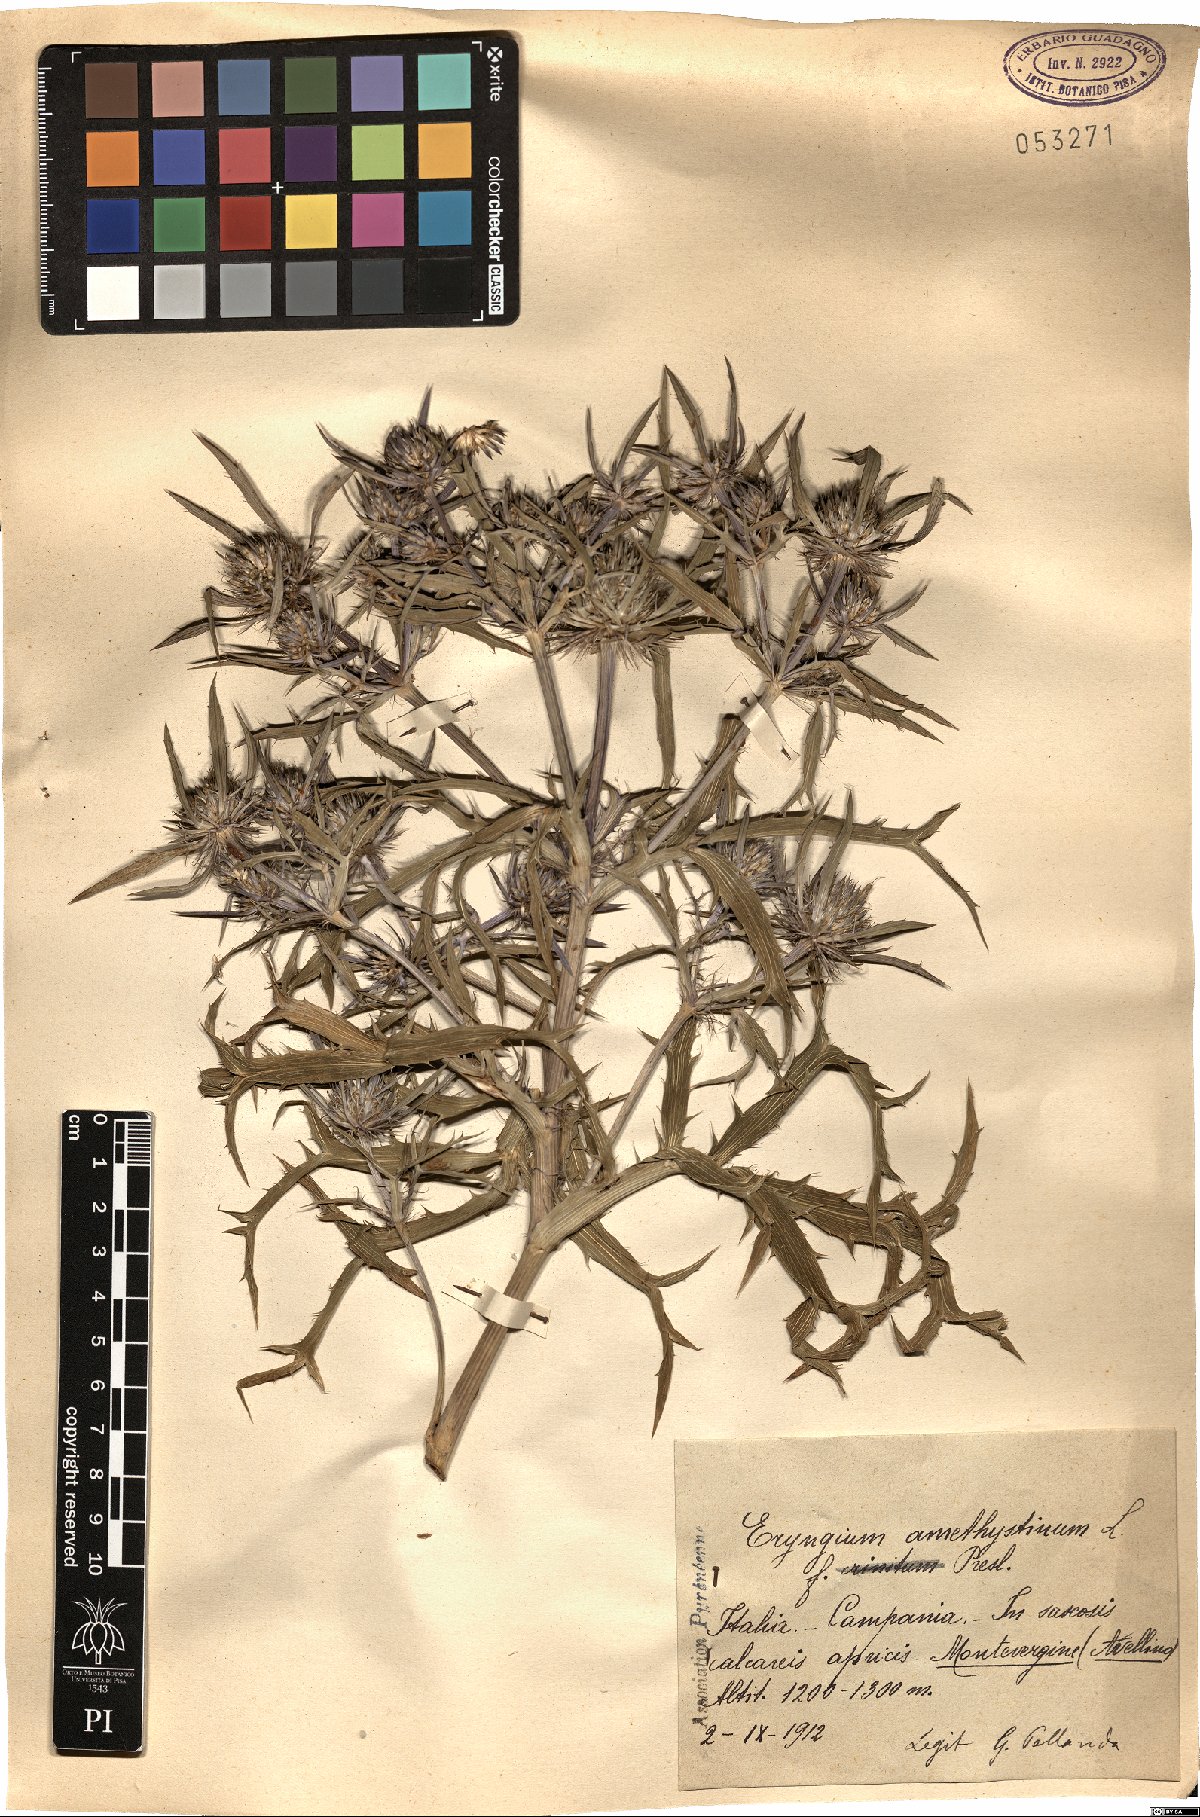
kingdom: Plantae
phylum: Tracheophyta
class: Magnoliopsida
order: Apiales
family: Apiaceae
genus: Eryngium
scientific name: Eryngium amethystinum
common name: Amethyst eryngo
